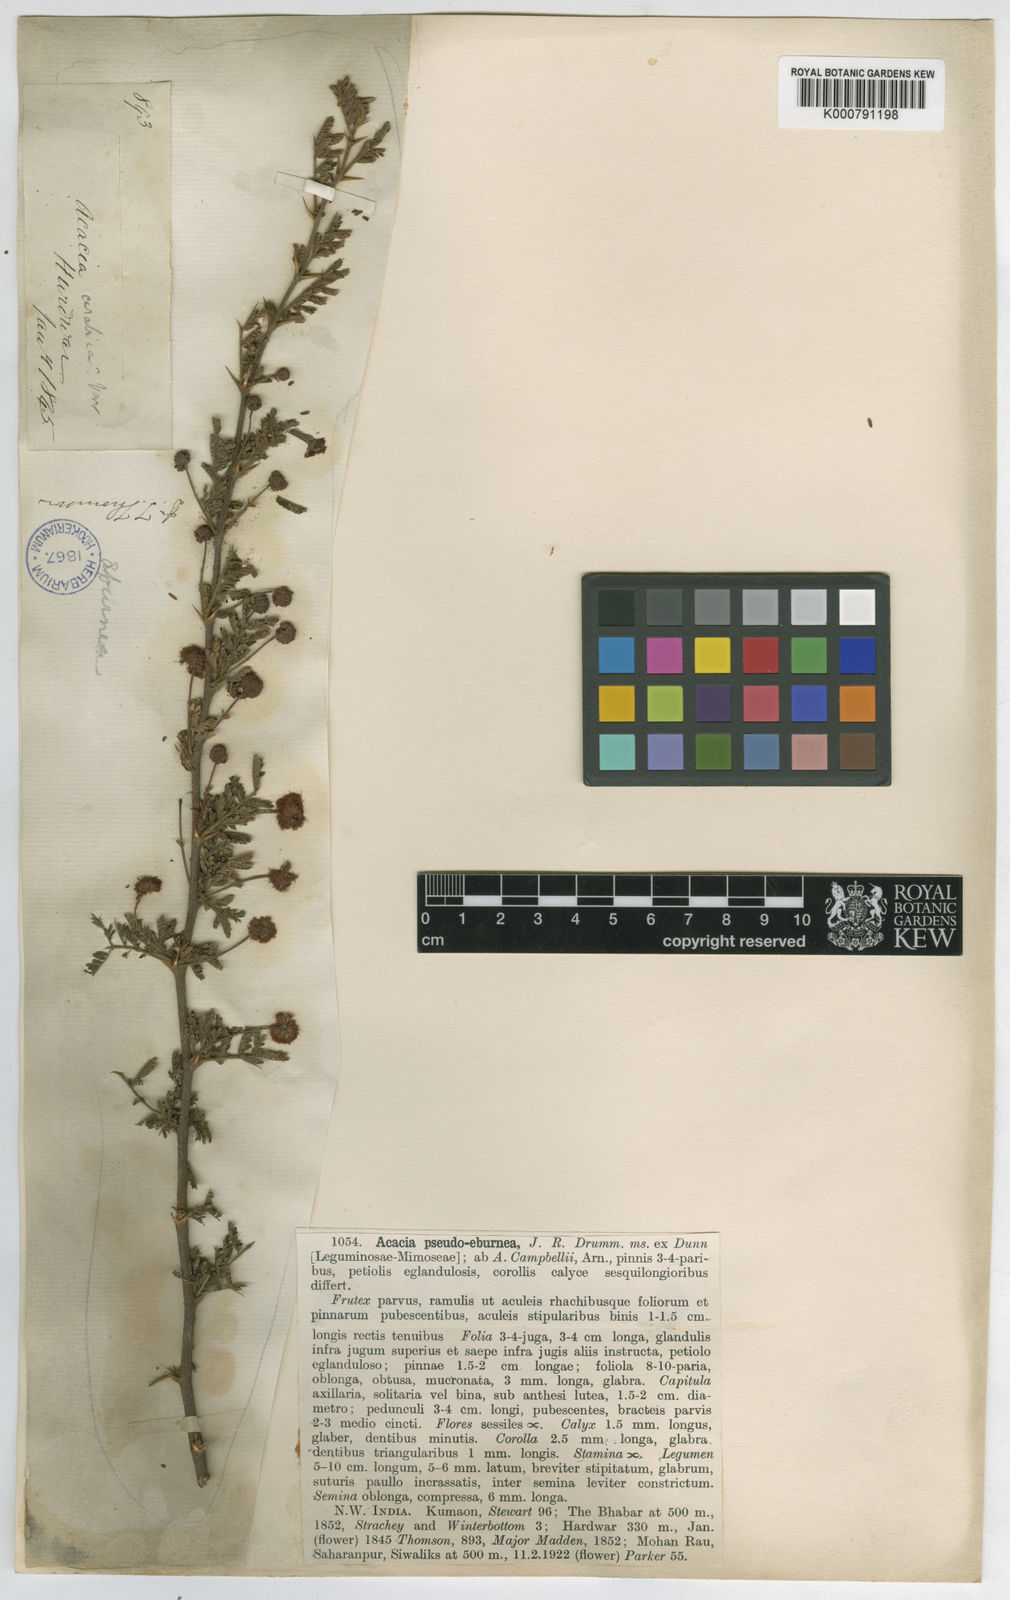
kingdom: Plantae
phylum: Tracheophyta
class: Magnoliopsida
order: Fabales
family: Fabaceae
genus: Vachellia
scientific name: Vachellia pseudoeburnea
